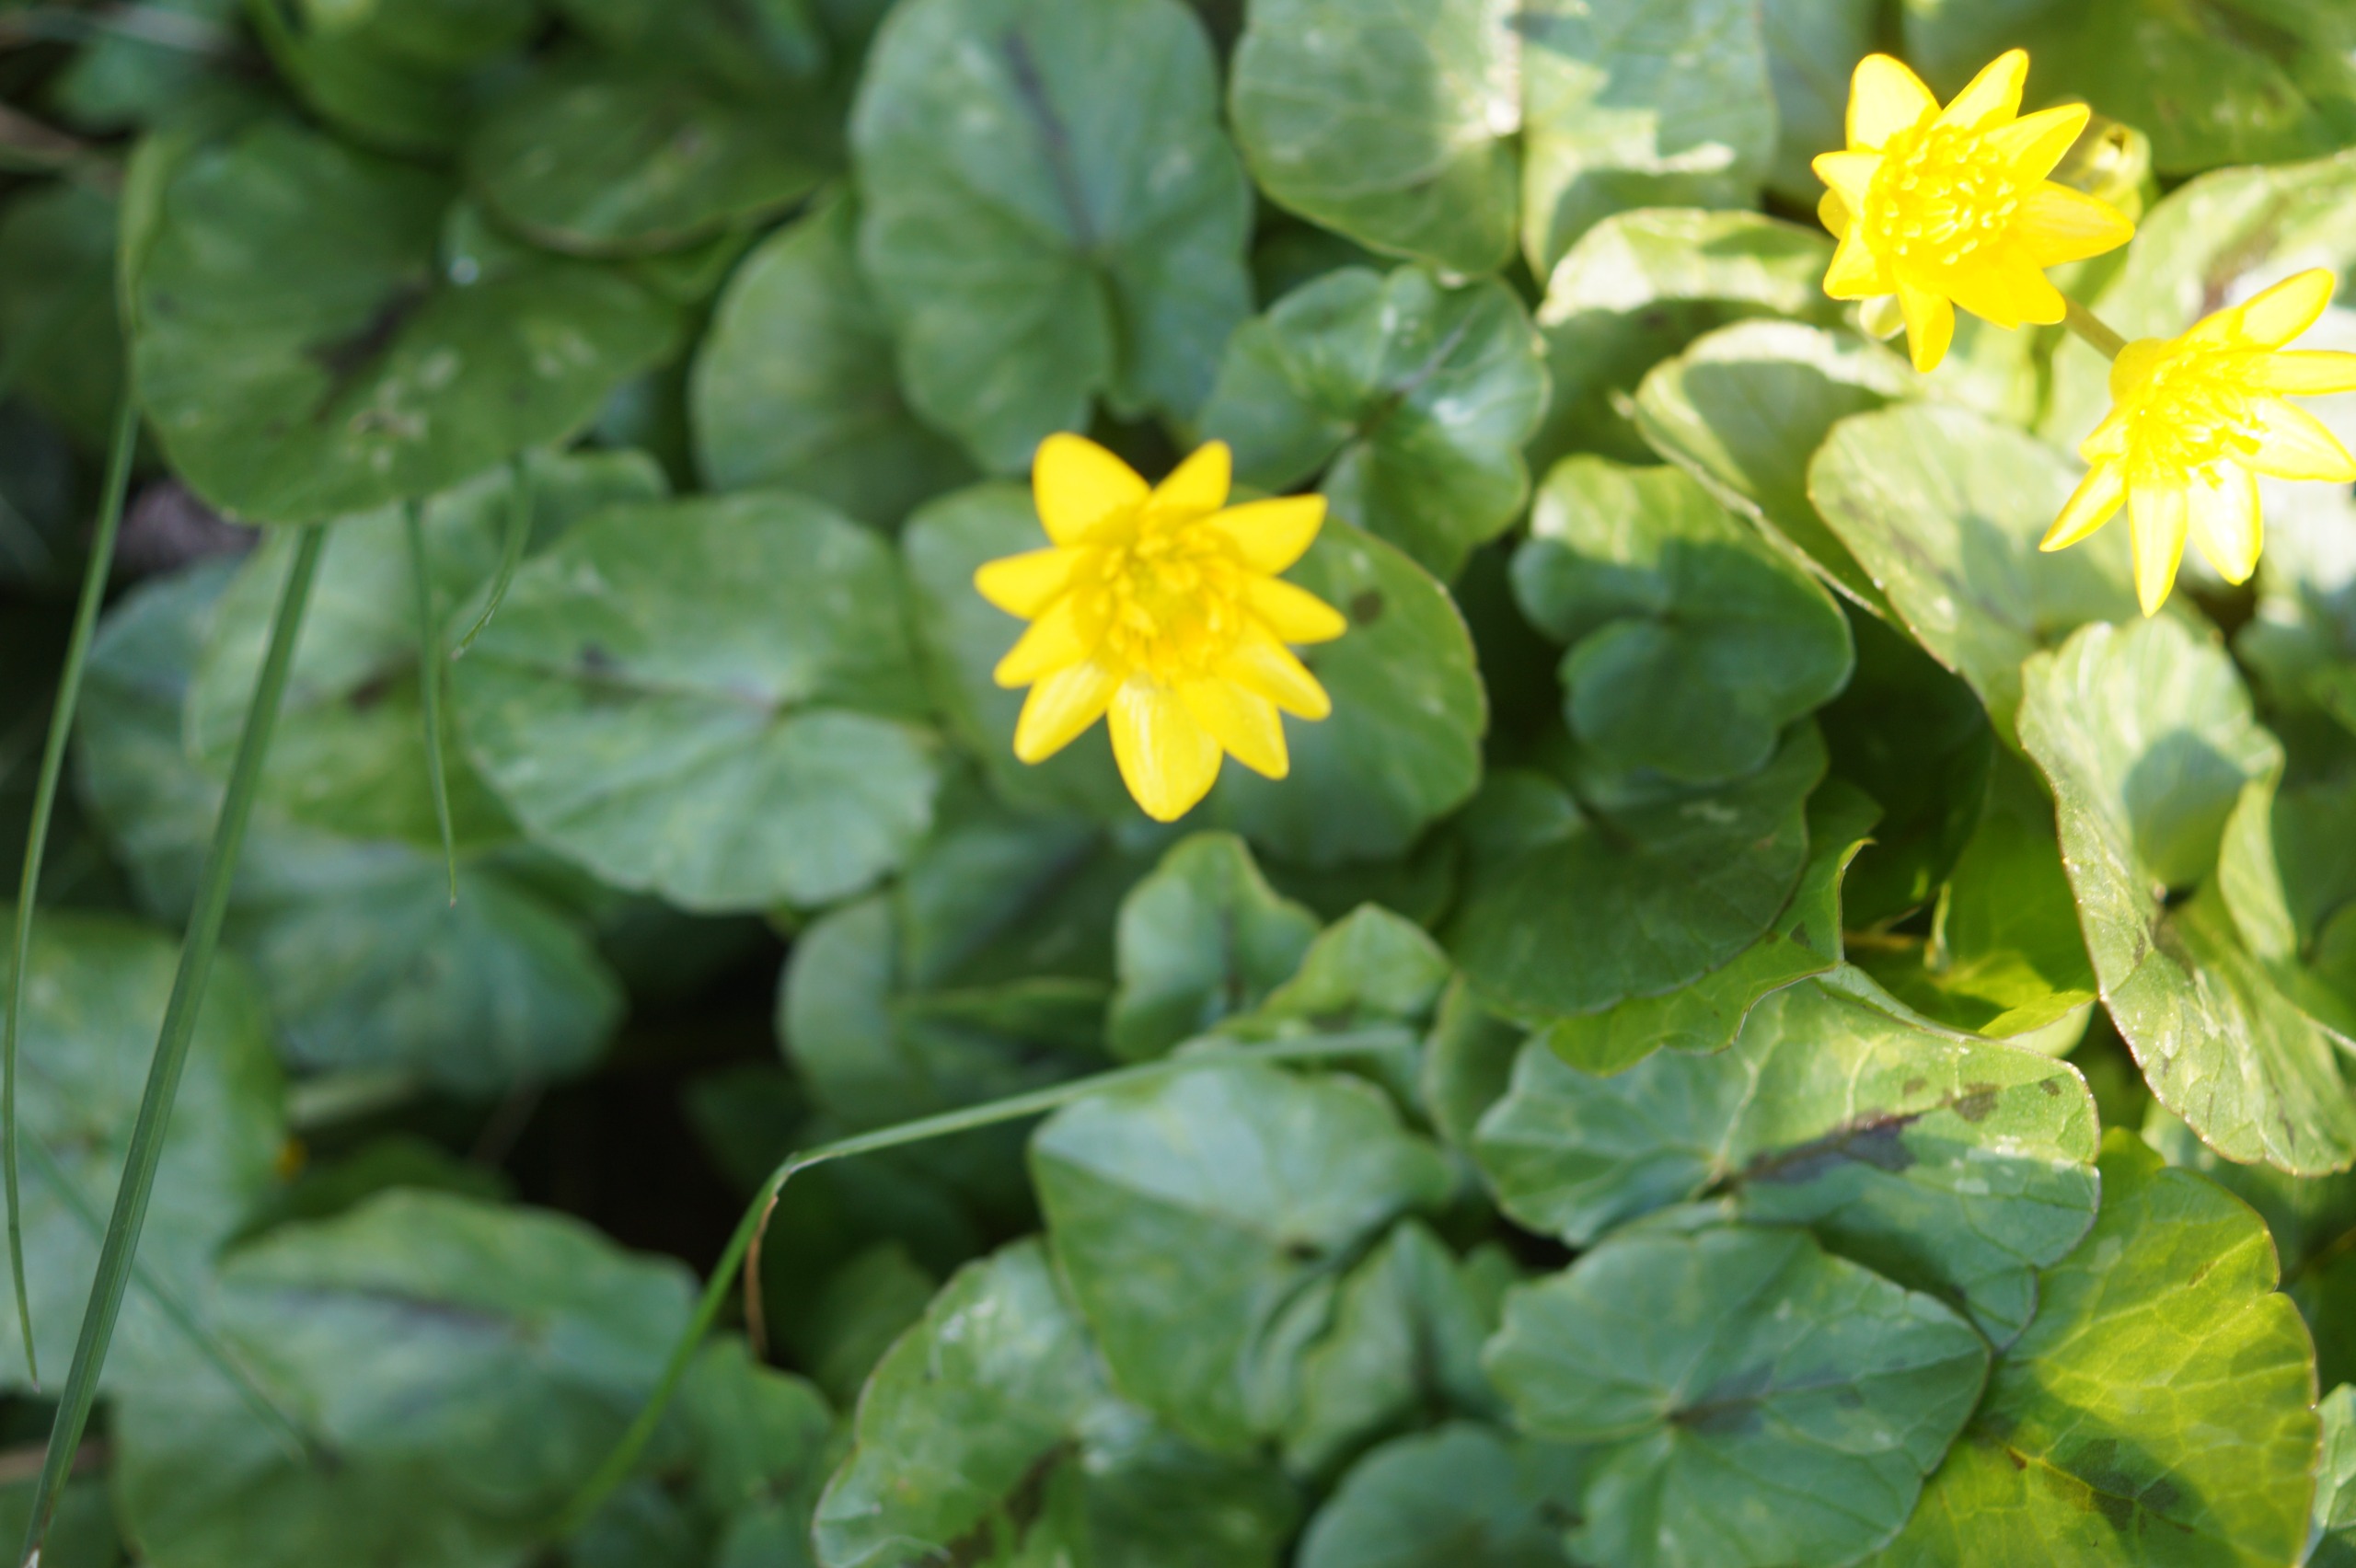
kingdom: Plantae
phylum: Tracheophyta
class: Magnoliopsida
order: Ranunculales
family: Ranunculaceae
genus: Ficaria
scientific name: Ficaria verna
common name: Vorterod
